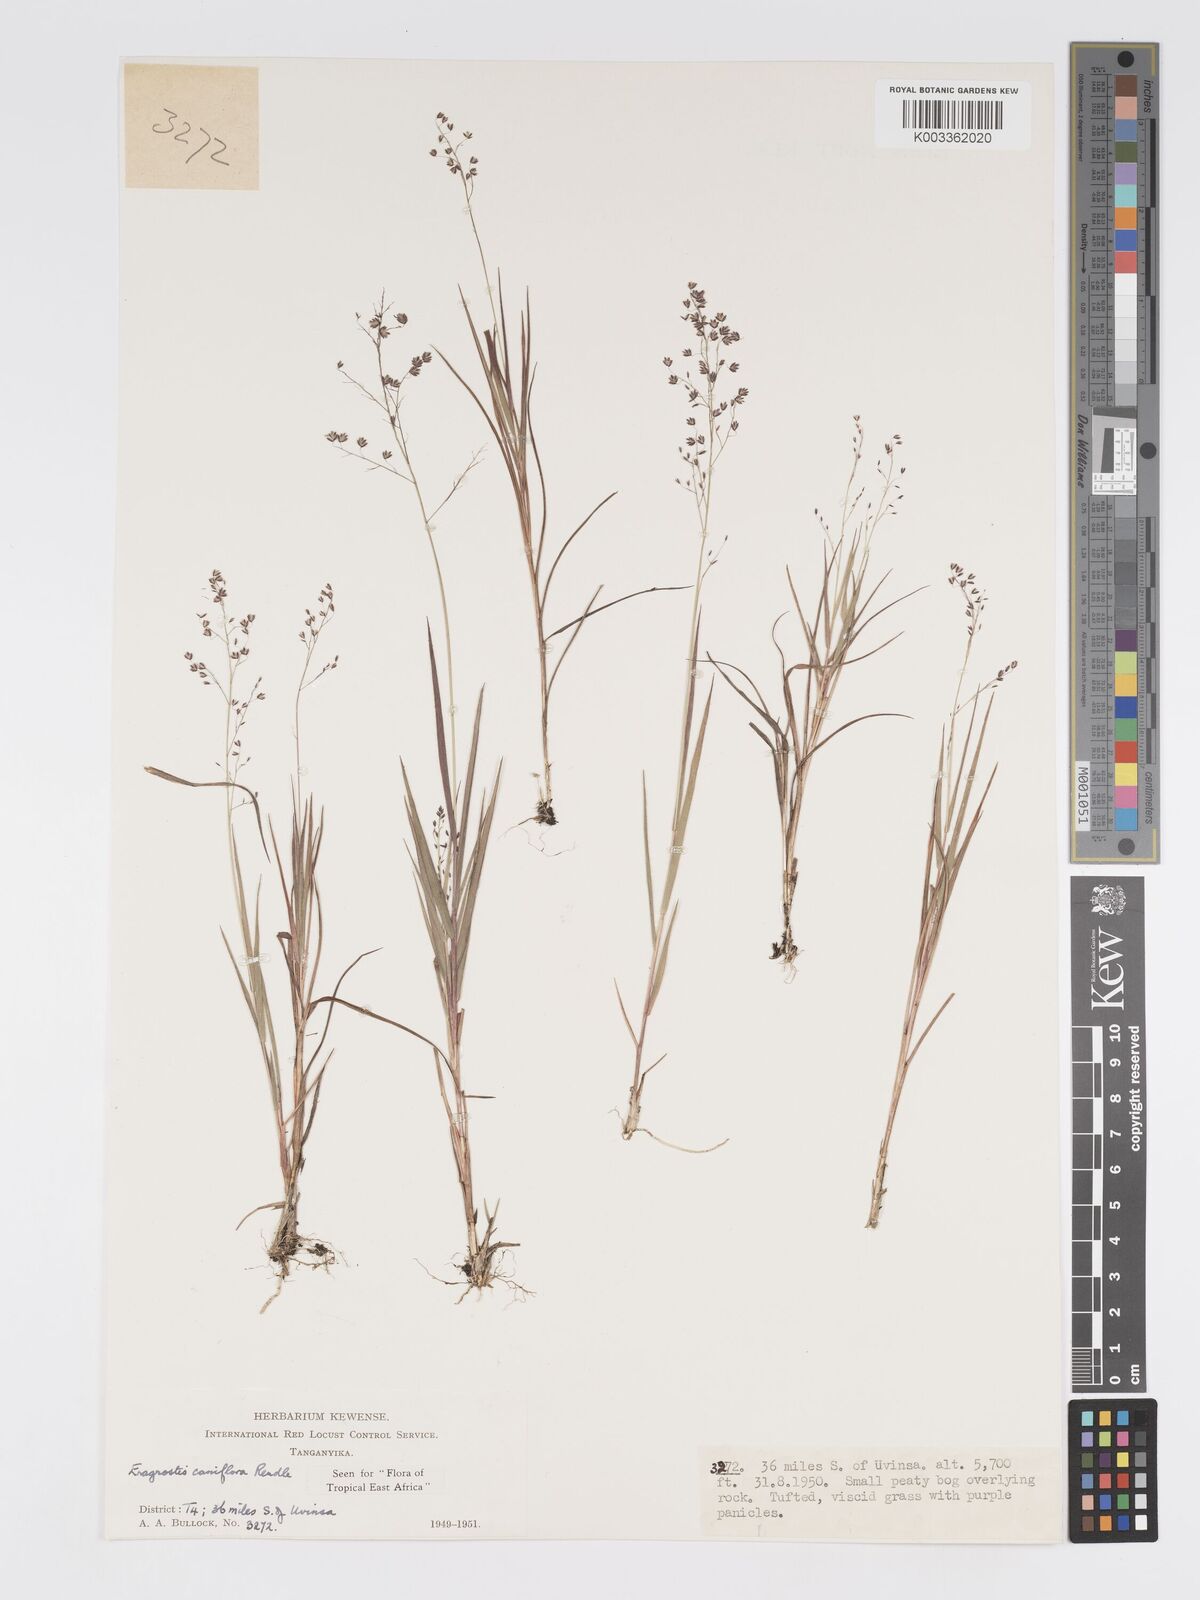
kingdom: Plantae
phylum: Tracheophyta
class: Liliopsida
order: Poales
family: Poaceae
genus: Eragrostis
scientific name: Eragrostis caniflora
